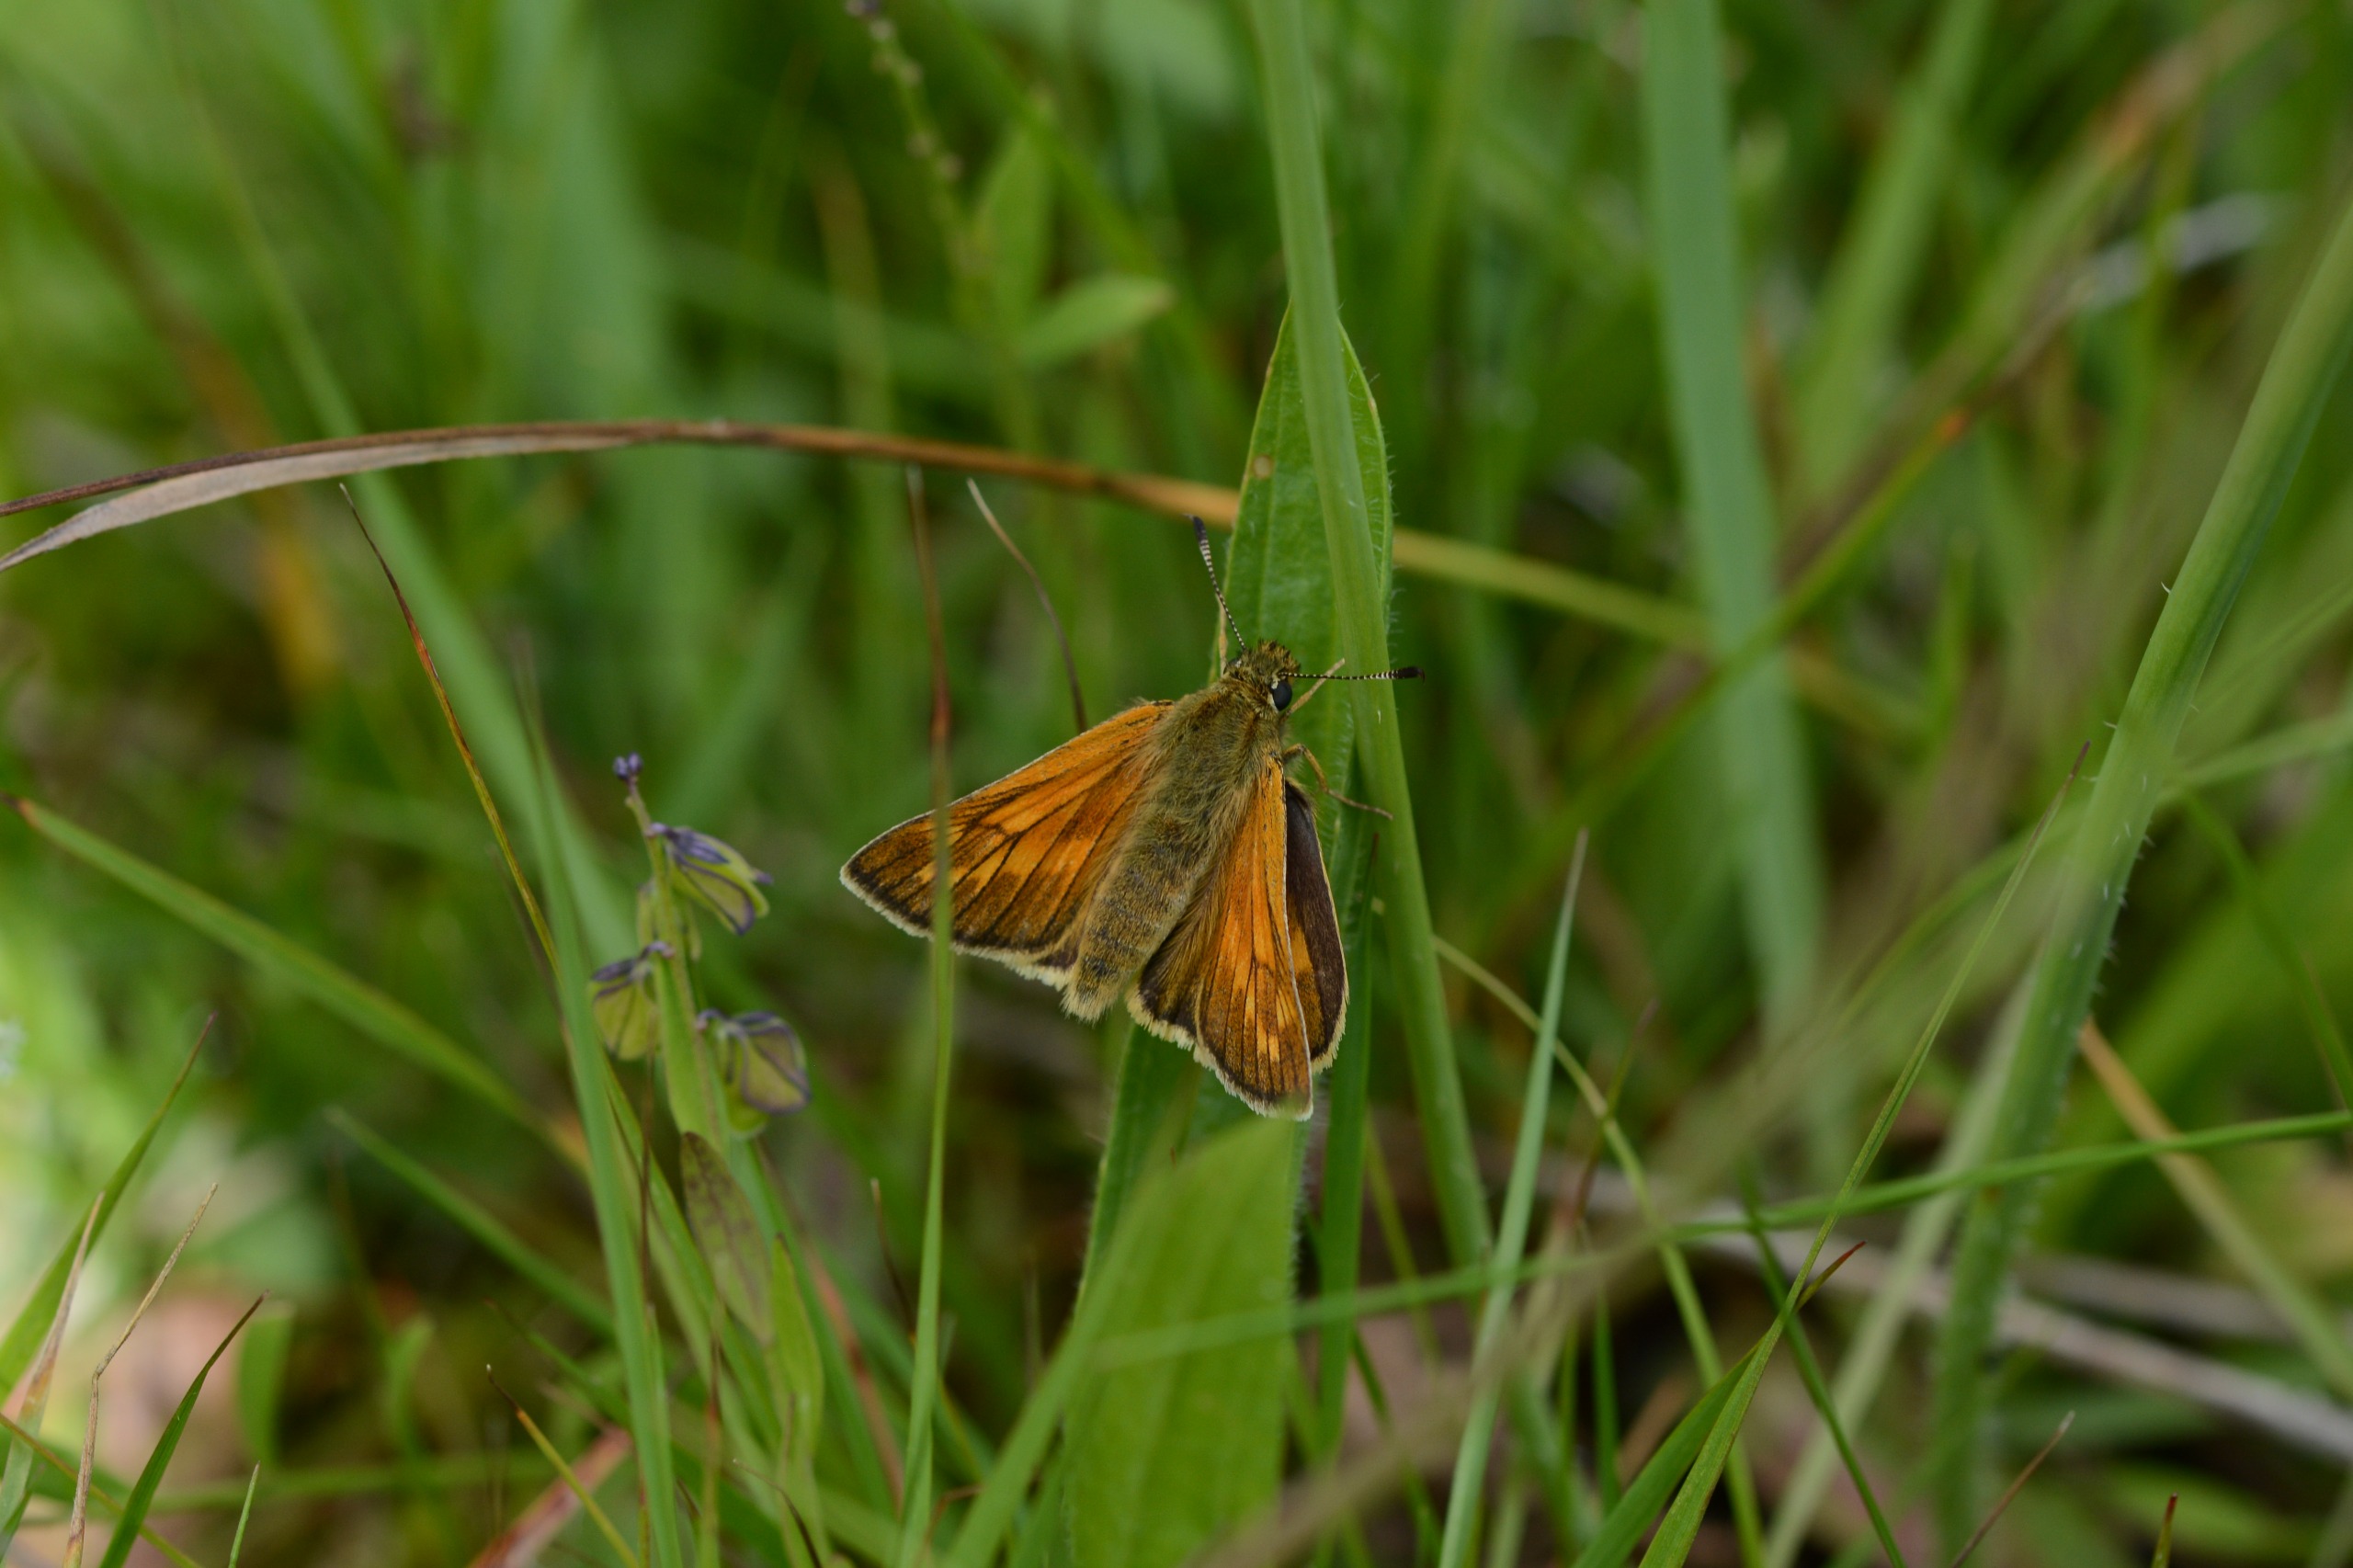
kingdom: Animalia
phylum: Arthropoda
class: Insecta
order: Lepidoptera
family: Hesperiidae
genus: Ochlodes
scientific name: Ochlodes venata
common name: Stor bredpande
